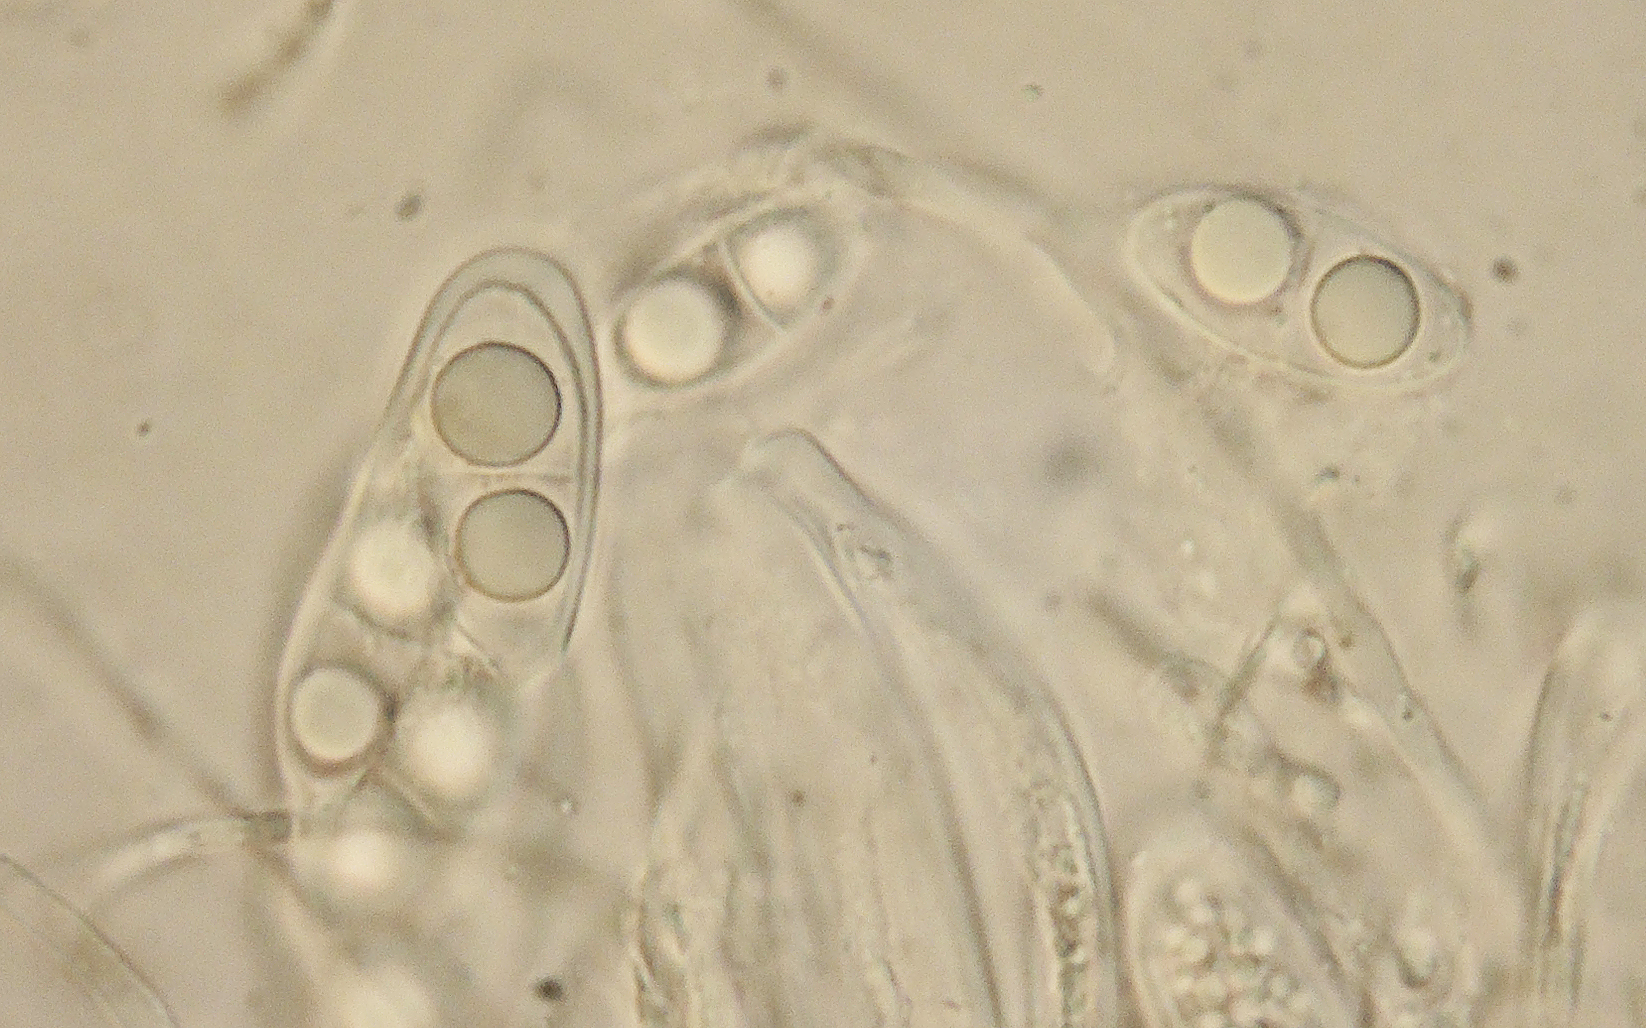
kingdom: Fungi
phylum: Ascomycota
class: Leotiomycetes
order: Leotiales
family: Mniaeciaceae
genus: Mniaecia
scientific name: Mniaecia nivea
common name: Calycina nivea
